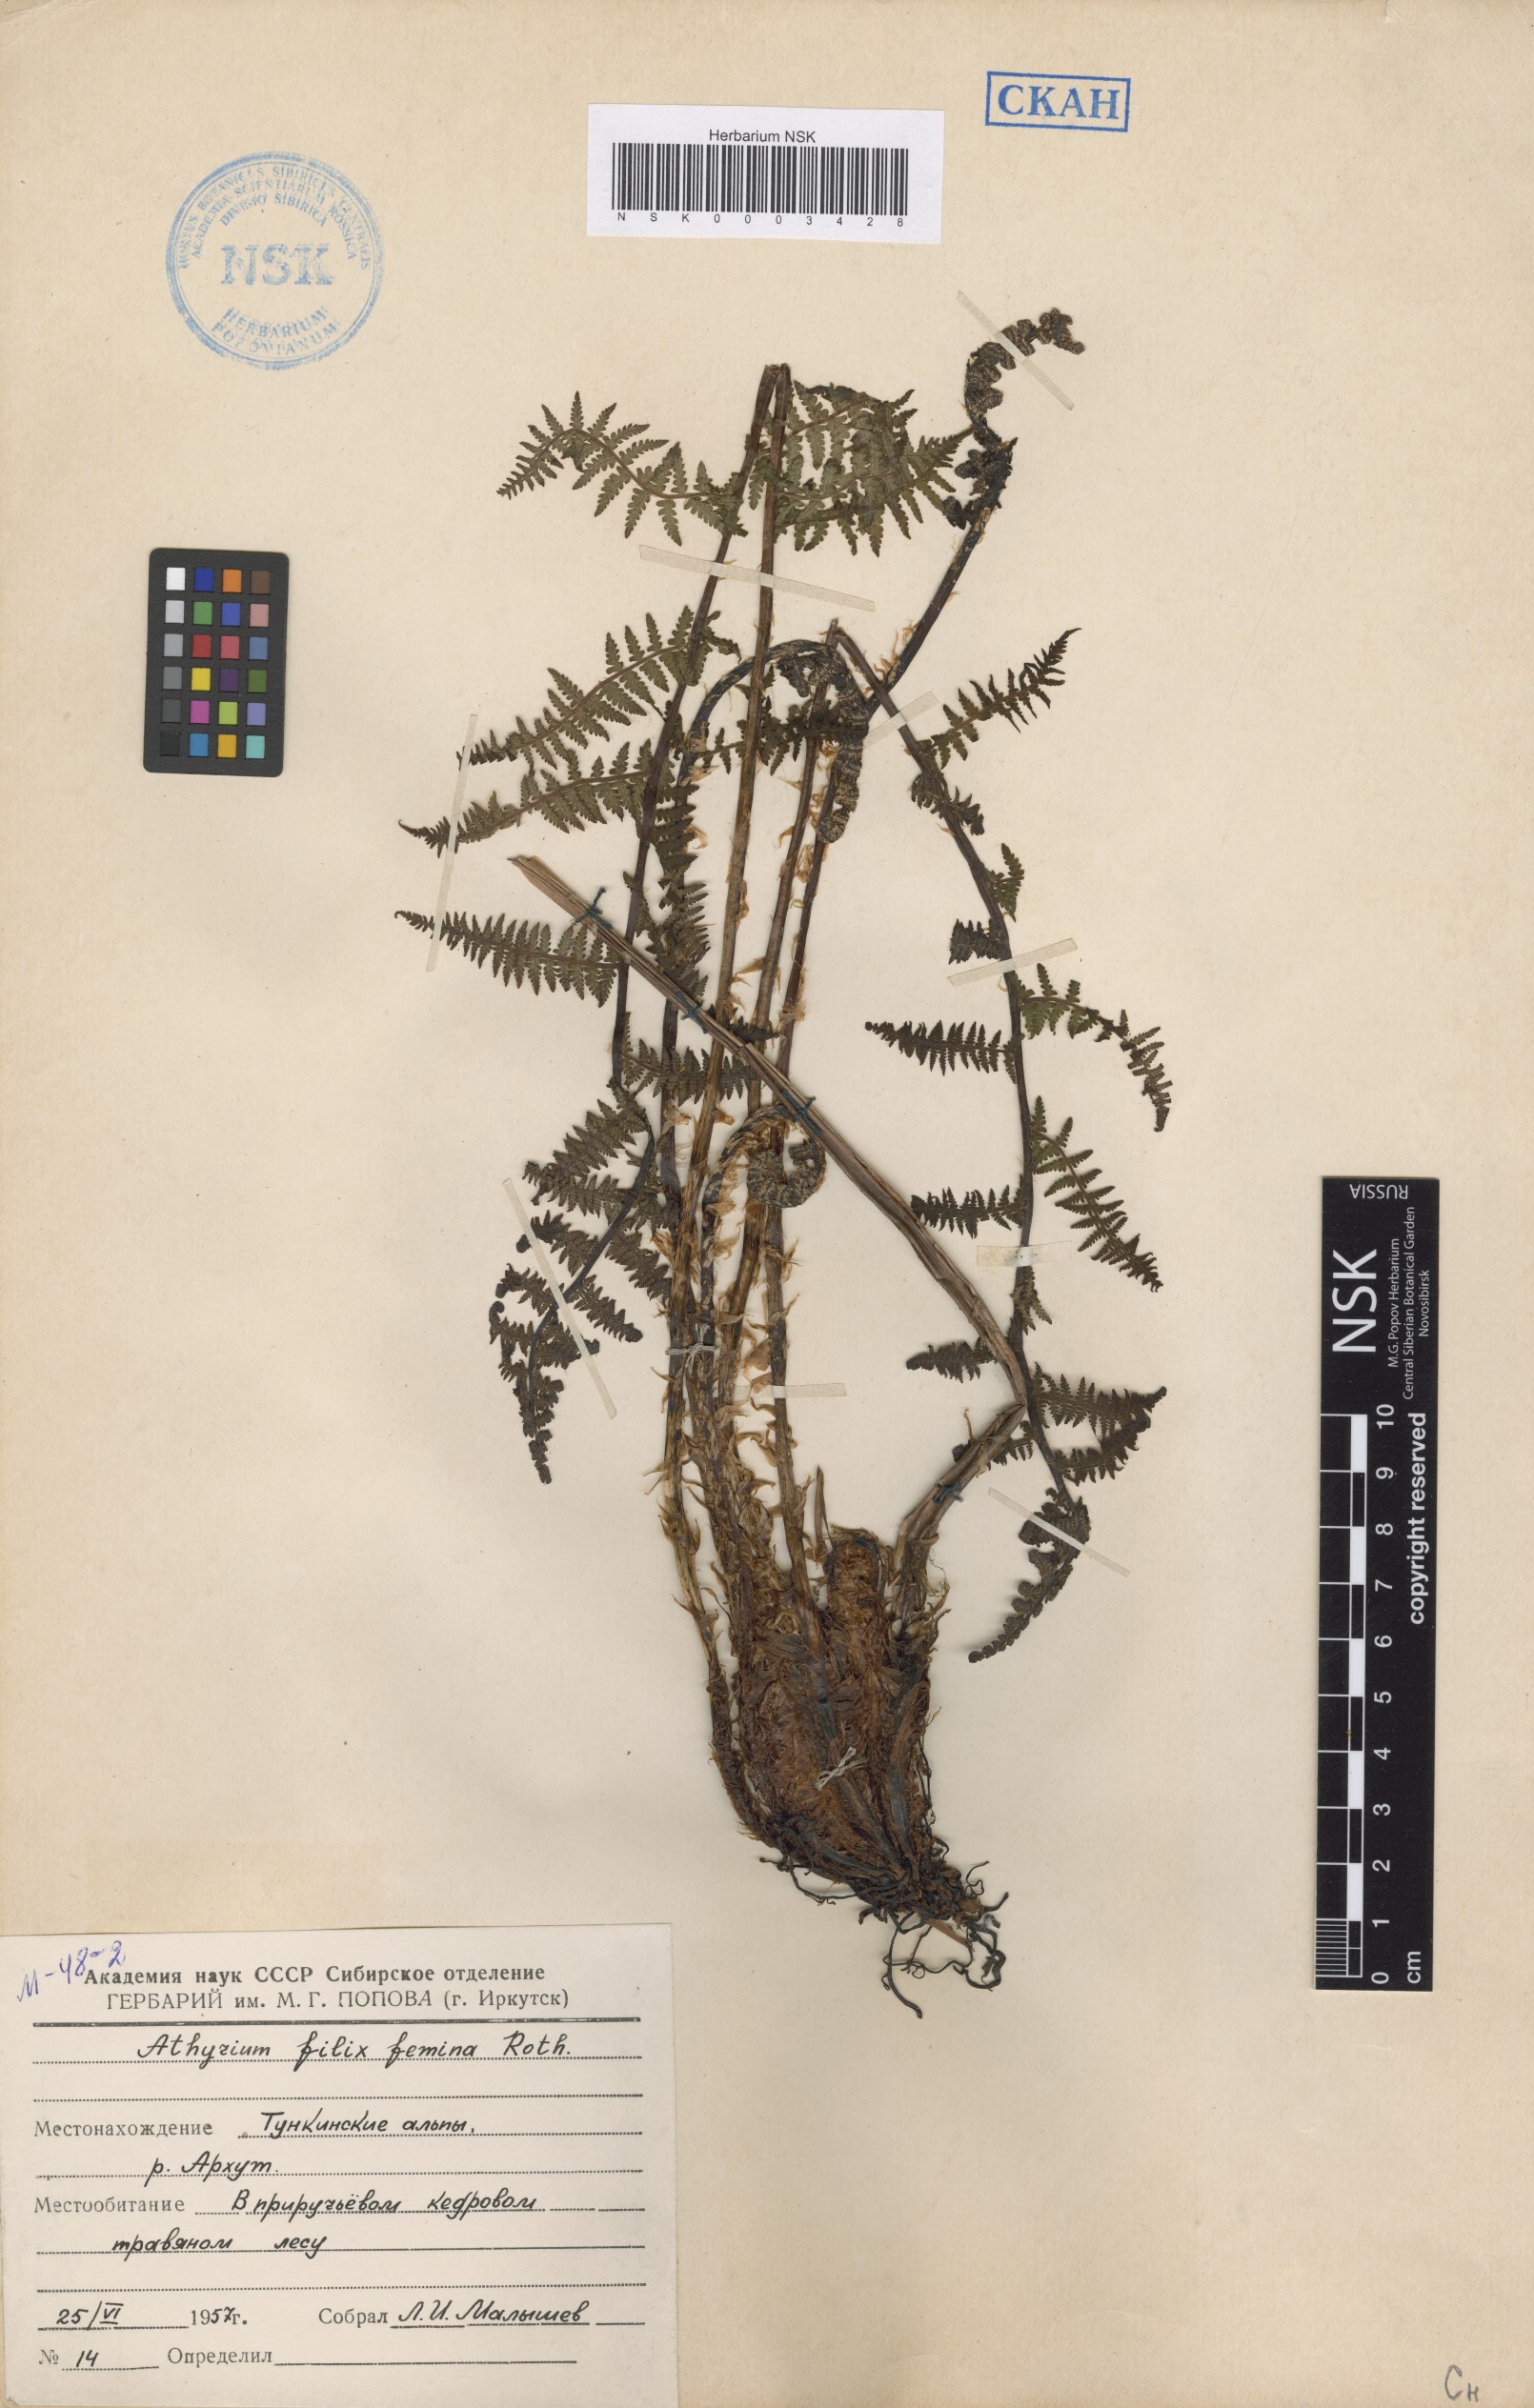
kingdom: Plantae
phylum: Tracheophyta
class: Polypodiopsida
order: Polypodiales
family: Athyriaceae
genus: Athyrium
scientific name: Athyrium filix-femina
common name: Lady fern
